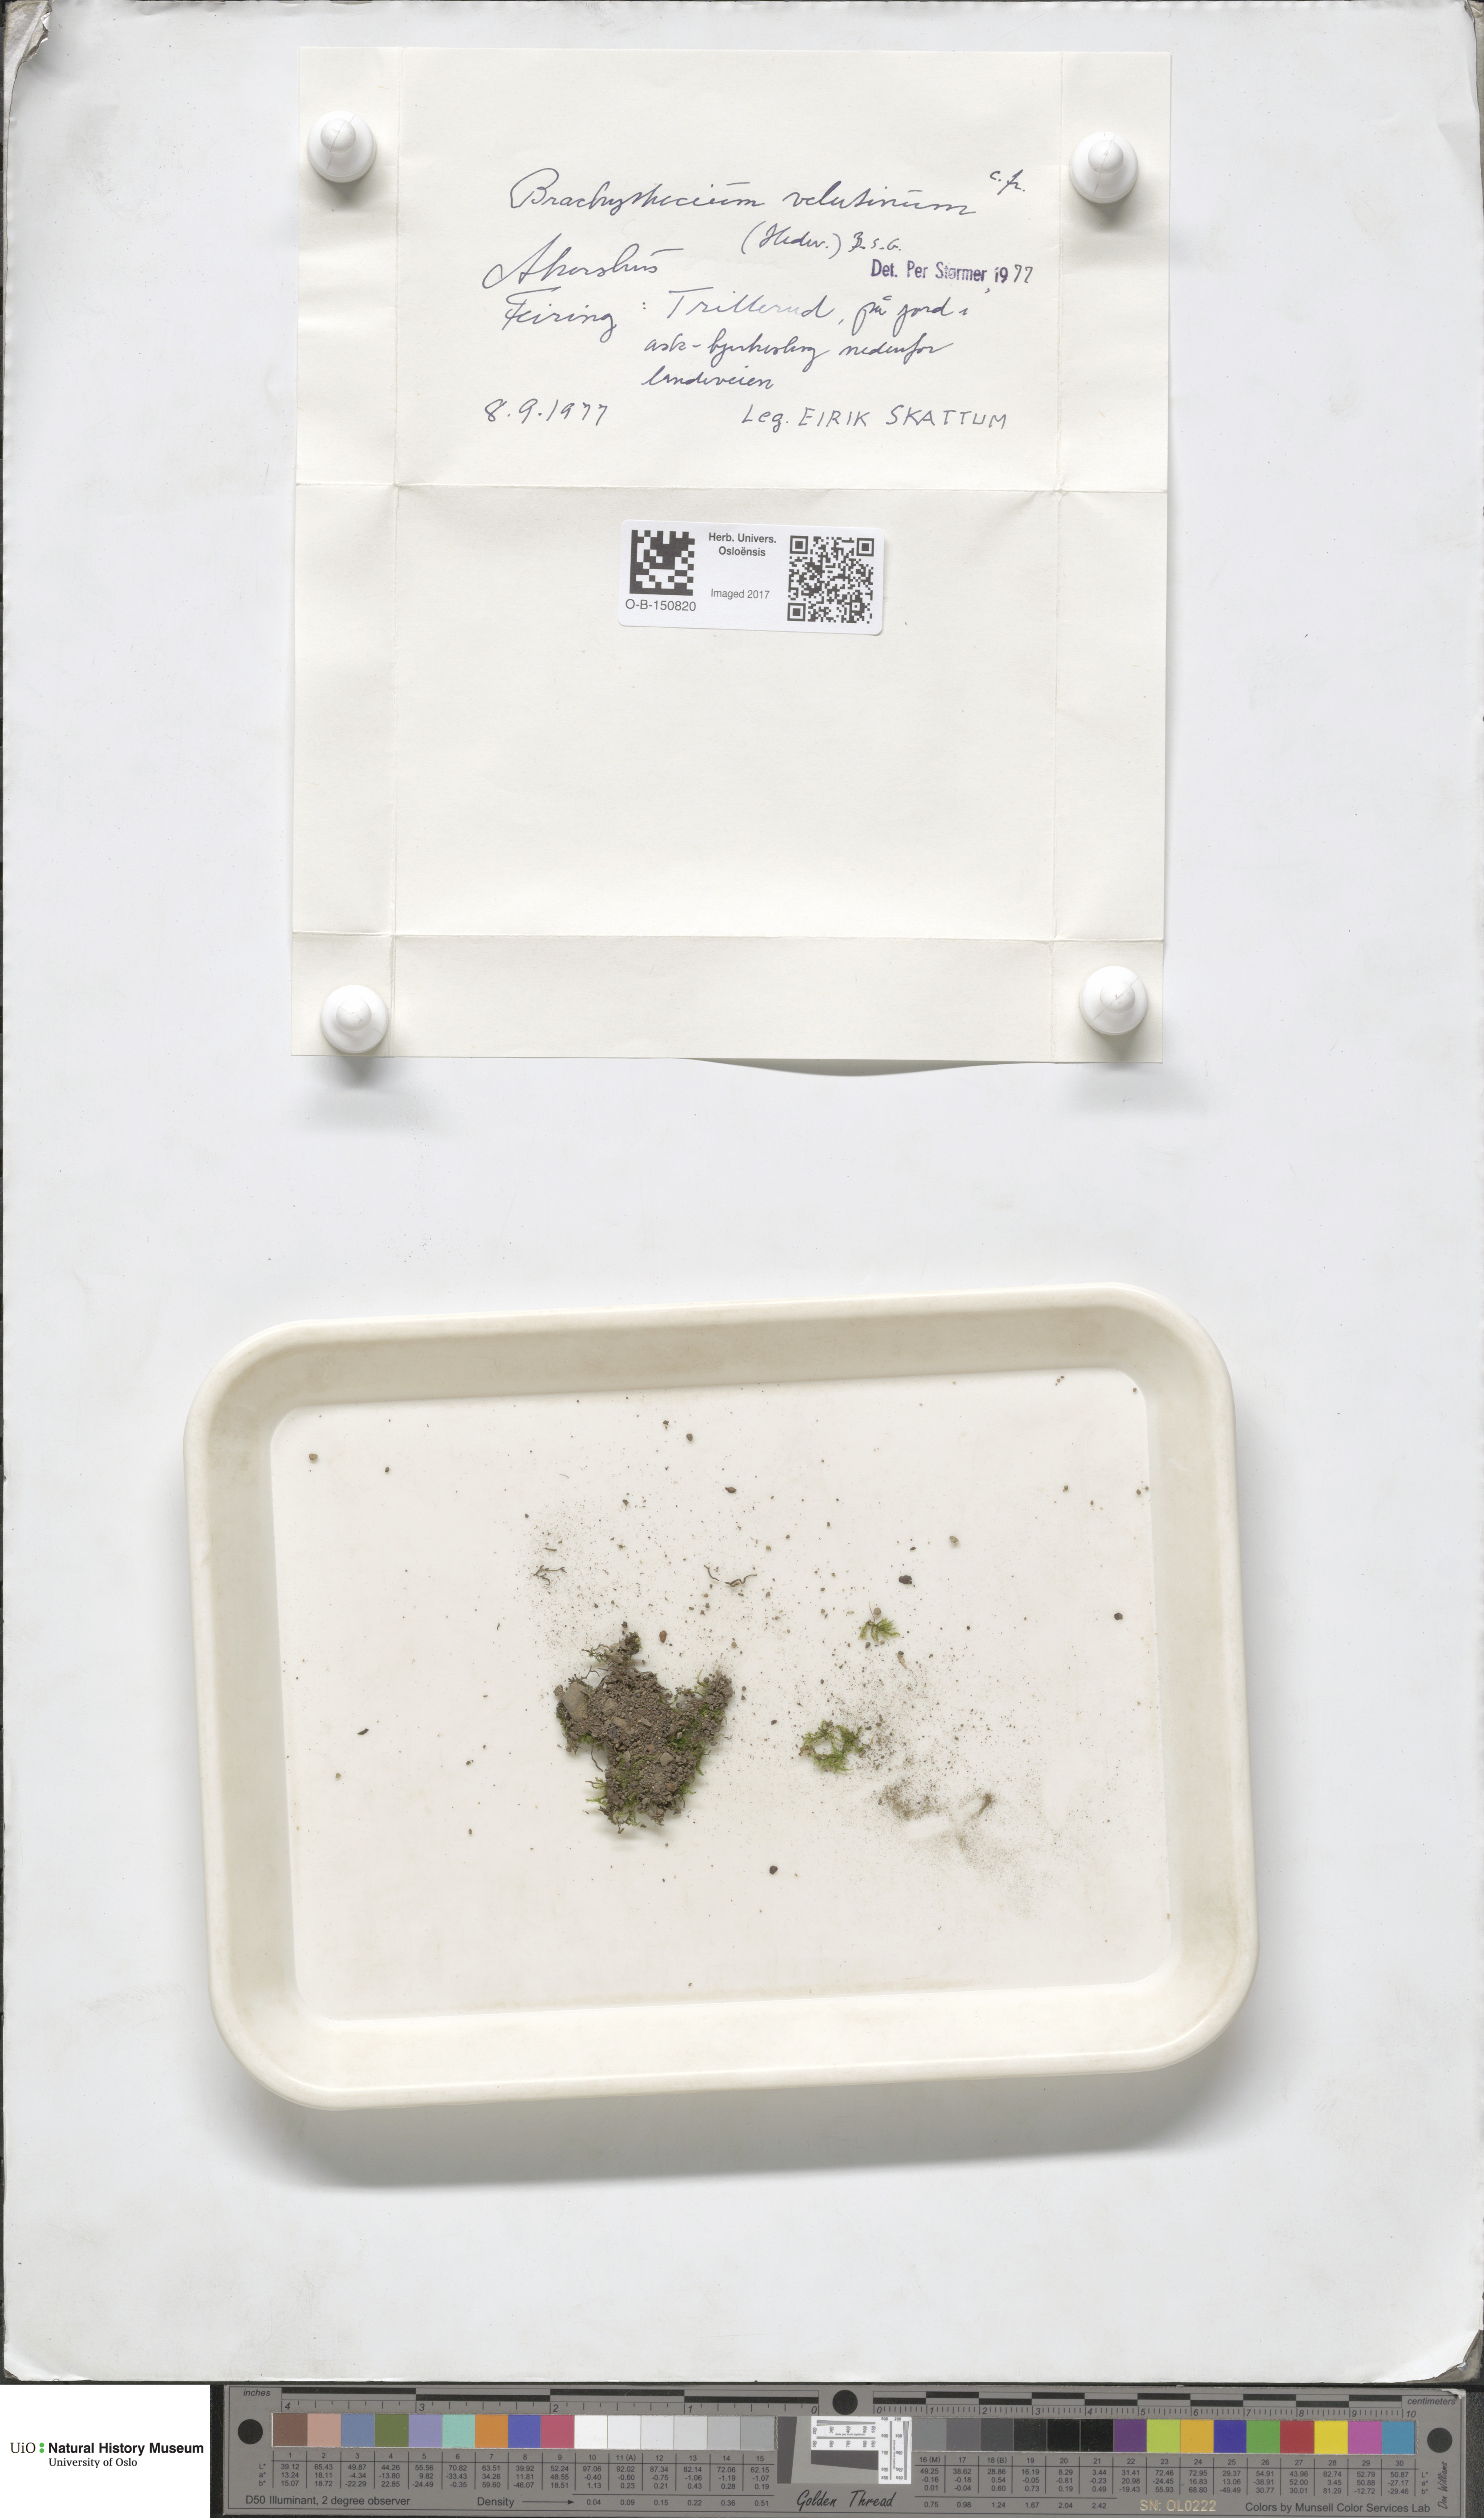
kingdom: Plantae
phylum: Bryophyta
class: Bryopsida
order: Hypnales
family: Brachytheciaceae
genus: Brachytheciastrum
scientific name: Brachytheciastrum velutinum
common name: Velvet feather-moss
